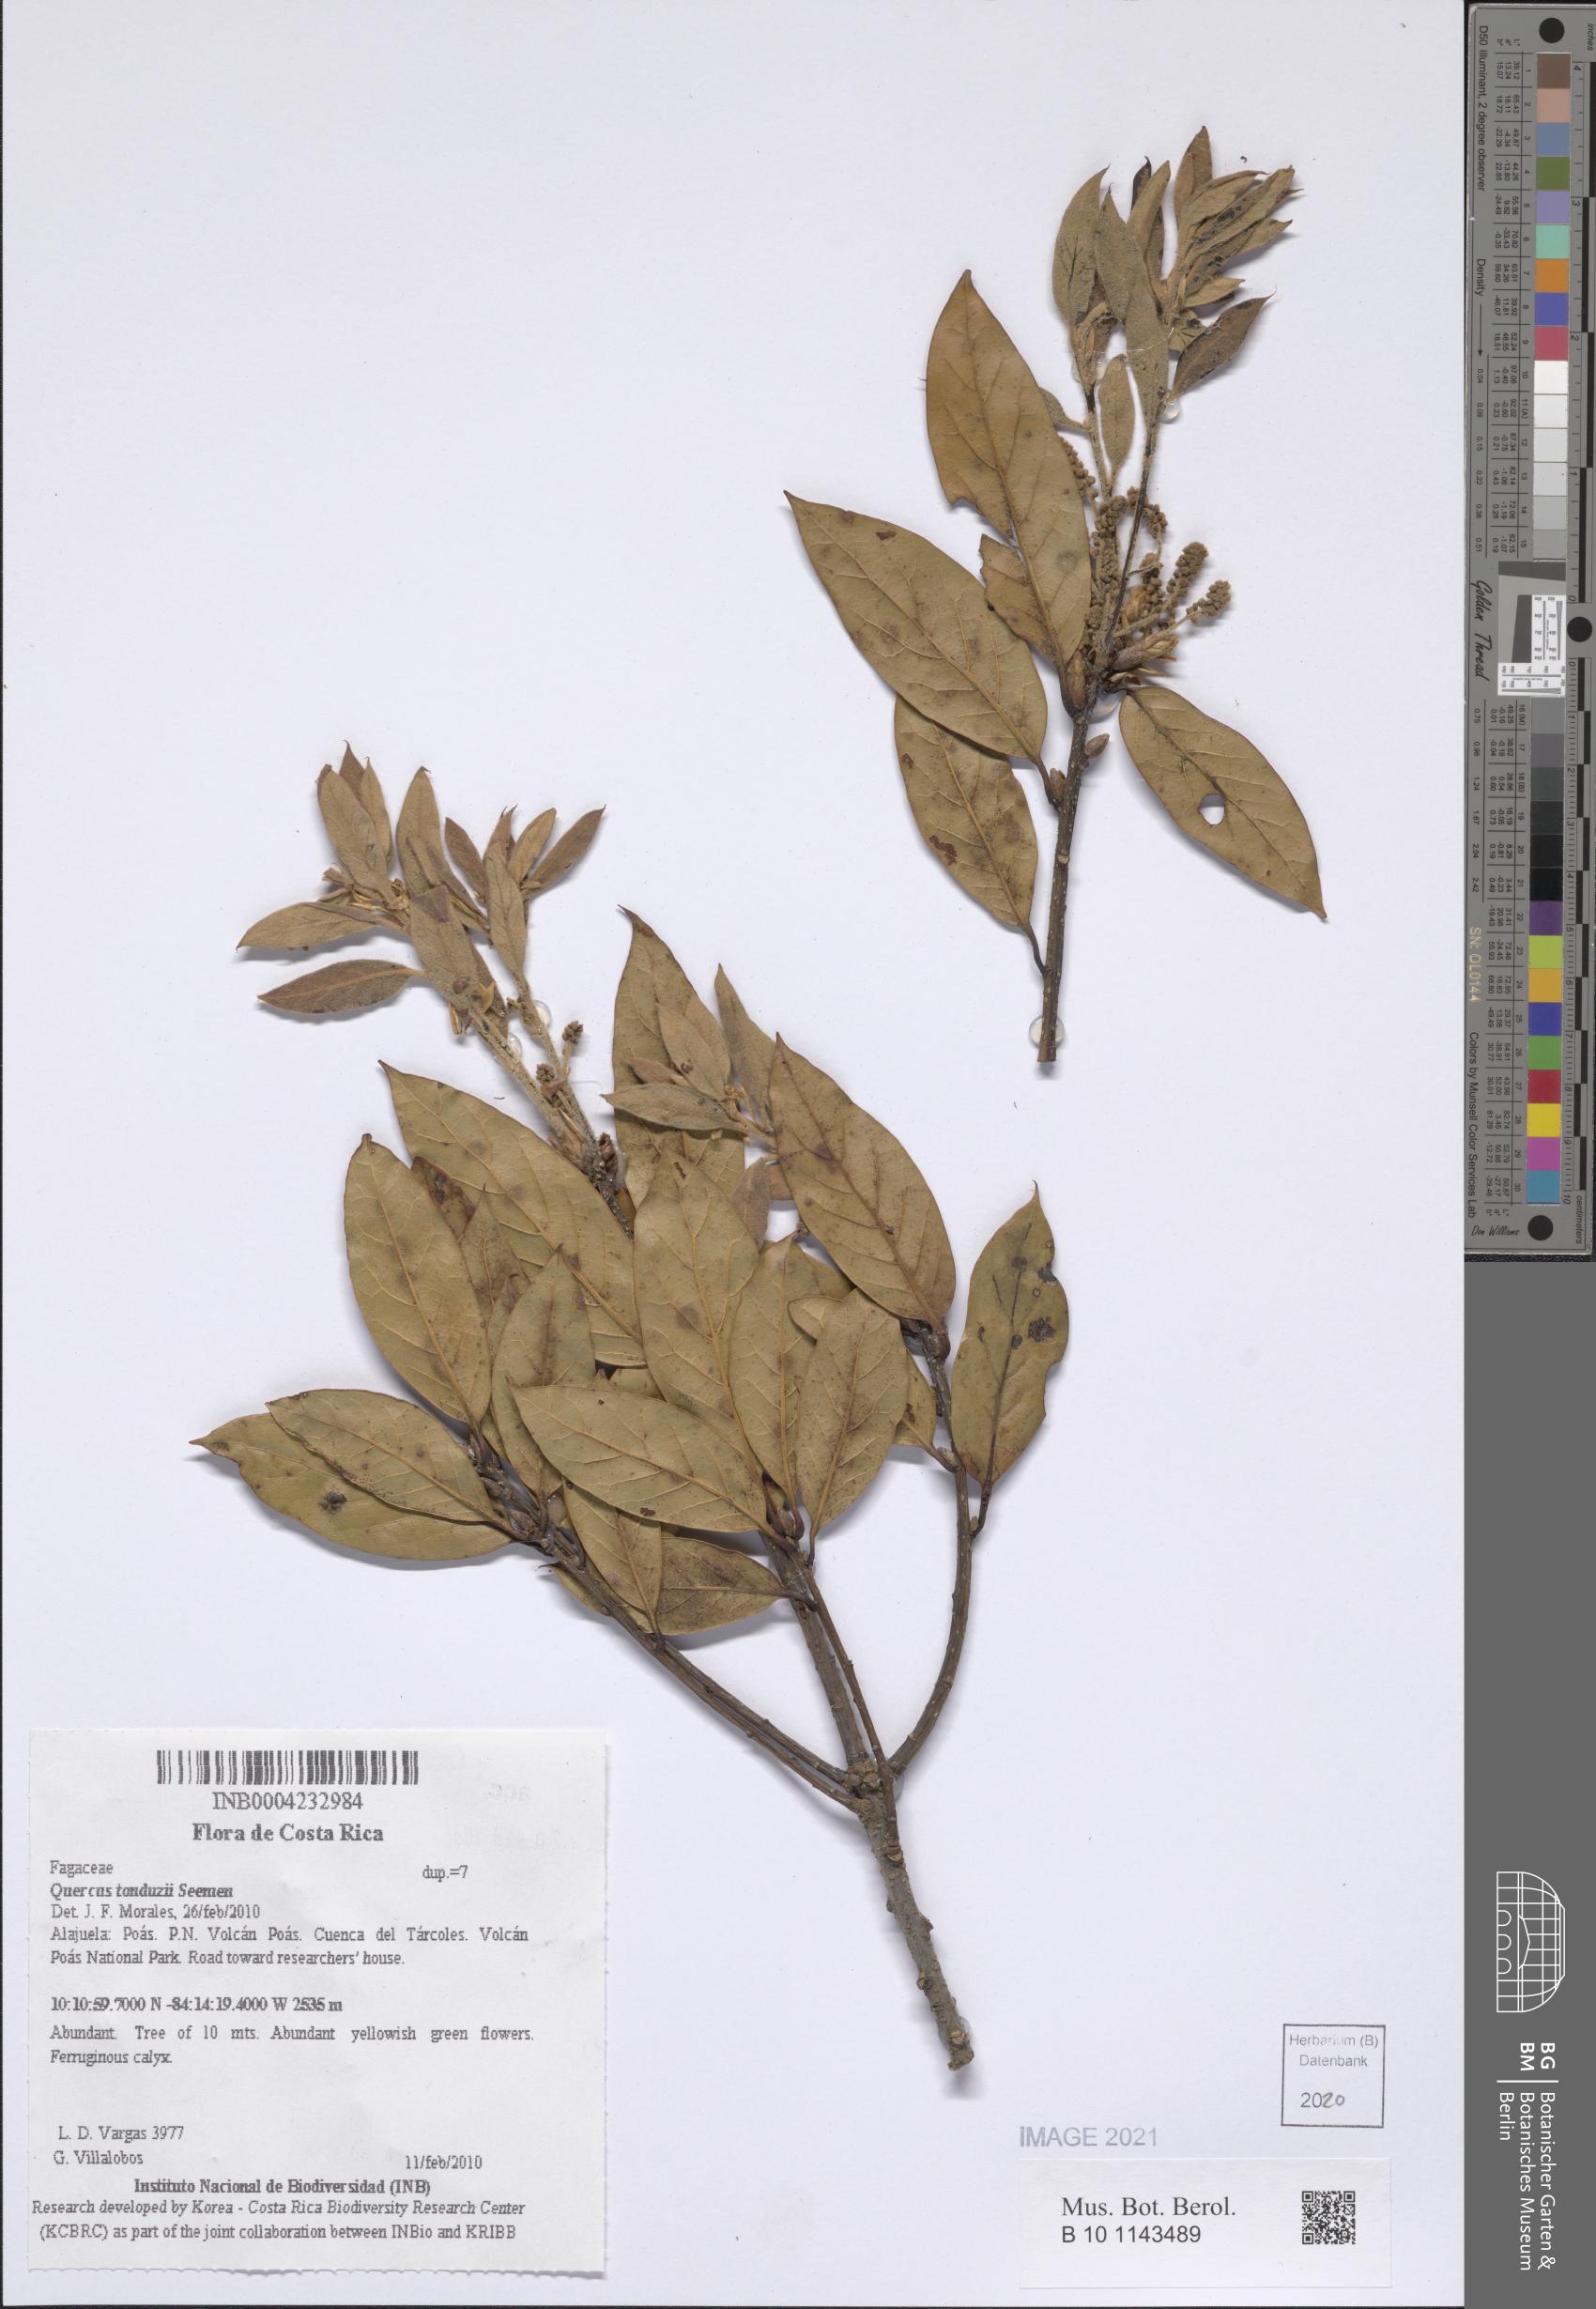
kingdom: Plantae
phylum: Tracheophyta
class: Magnoliopsida
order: Fagales
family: Fagaceae
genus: Quercus
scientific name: Quercus tonduzii
